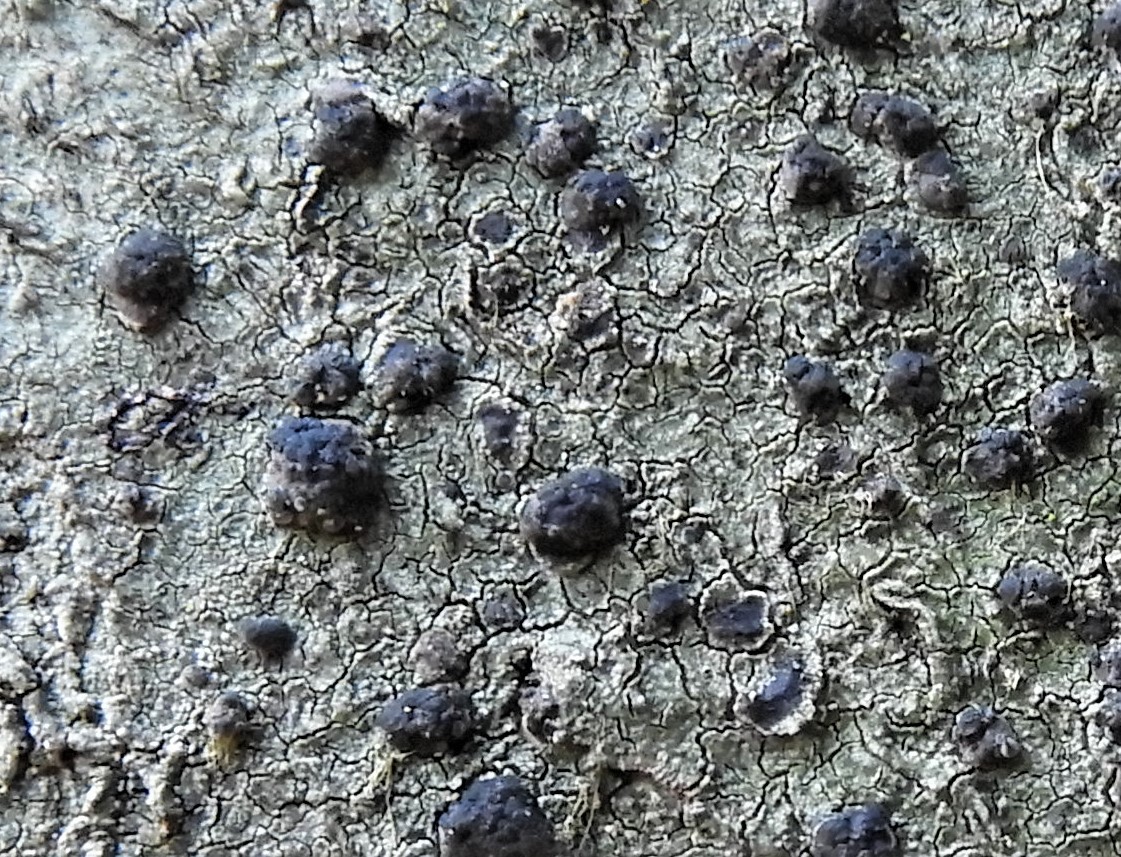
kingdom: Fungi
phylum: Ascomycota
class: Lecanoromycetes
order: Lecanorales
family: Lecanoraceae
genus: Lecidella
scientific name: Lecidella elaeochroma
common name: grågrøn skivelav
